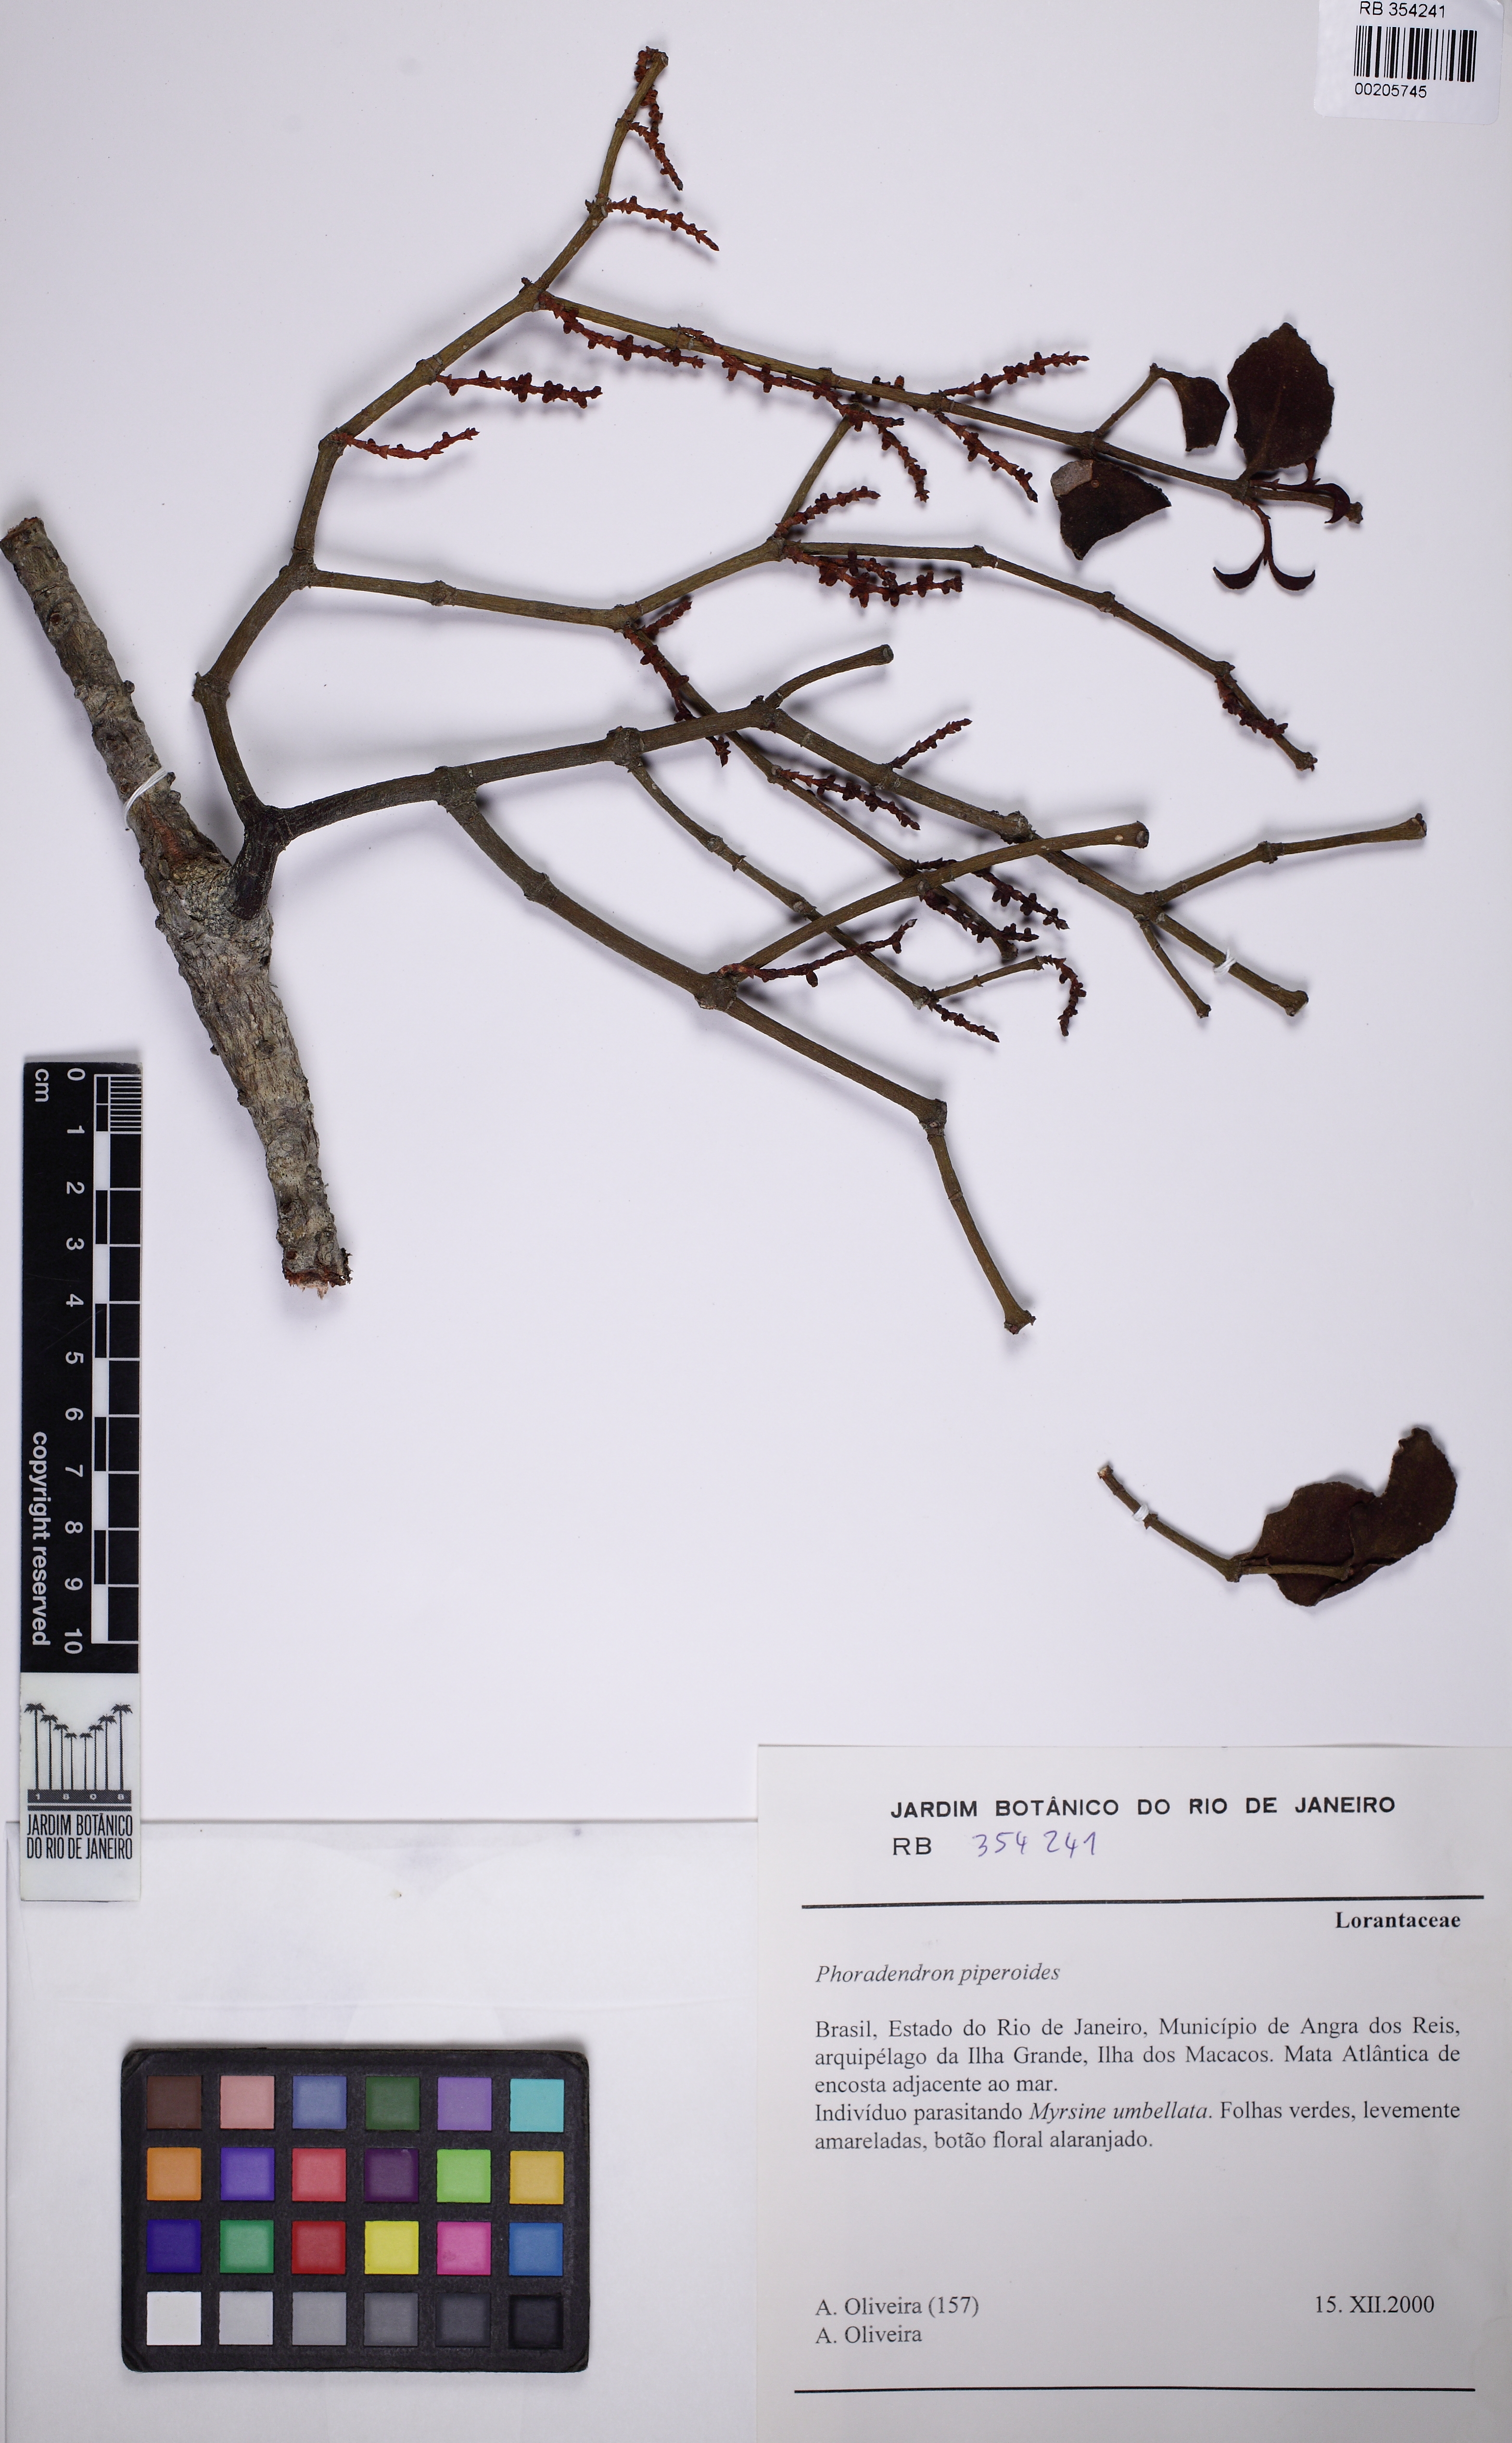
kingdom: Plantae
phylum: Tracheophyta
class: Magnoliopsida
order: Santalales
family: Viscaceae
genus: Phoradendron
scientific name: Phoradendron piperoides
